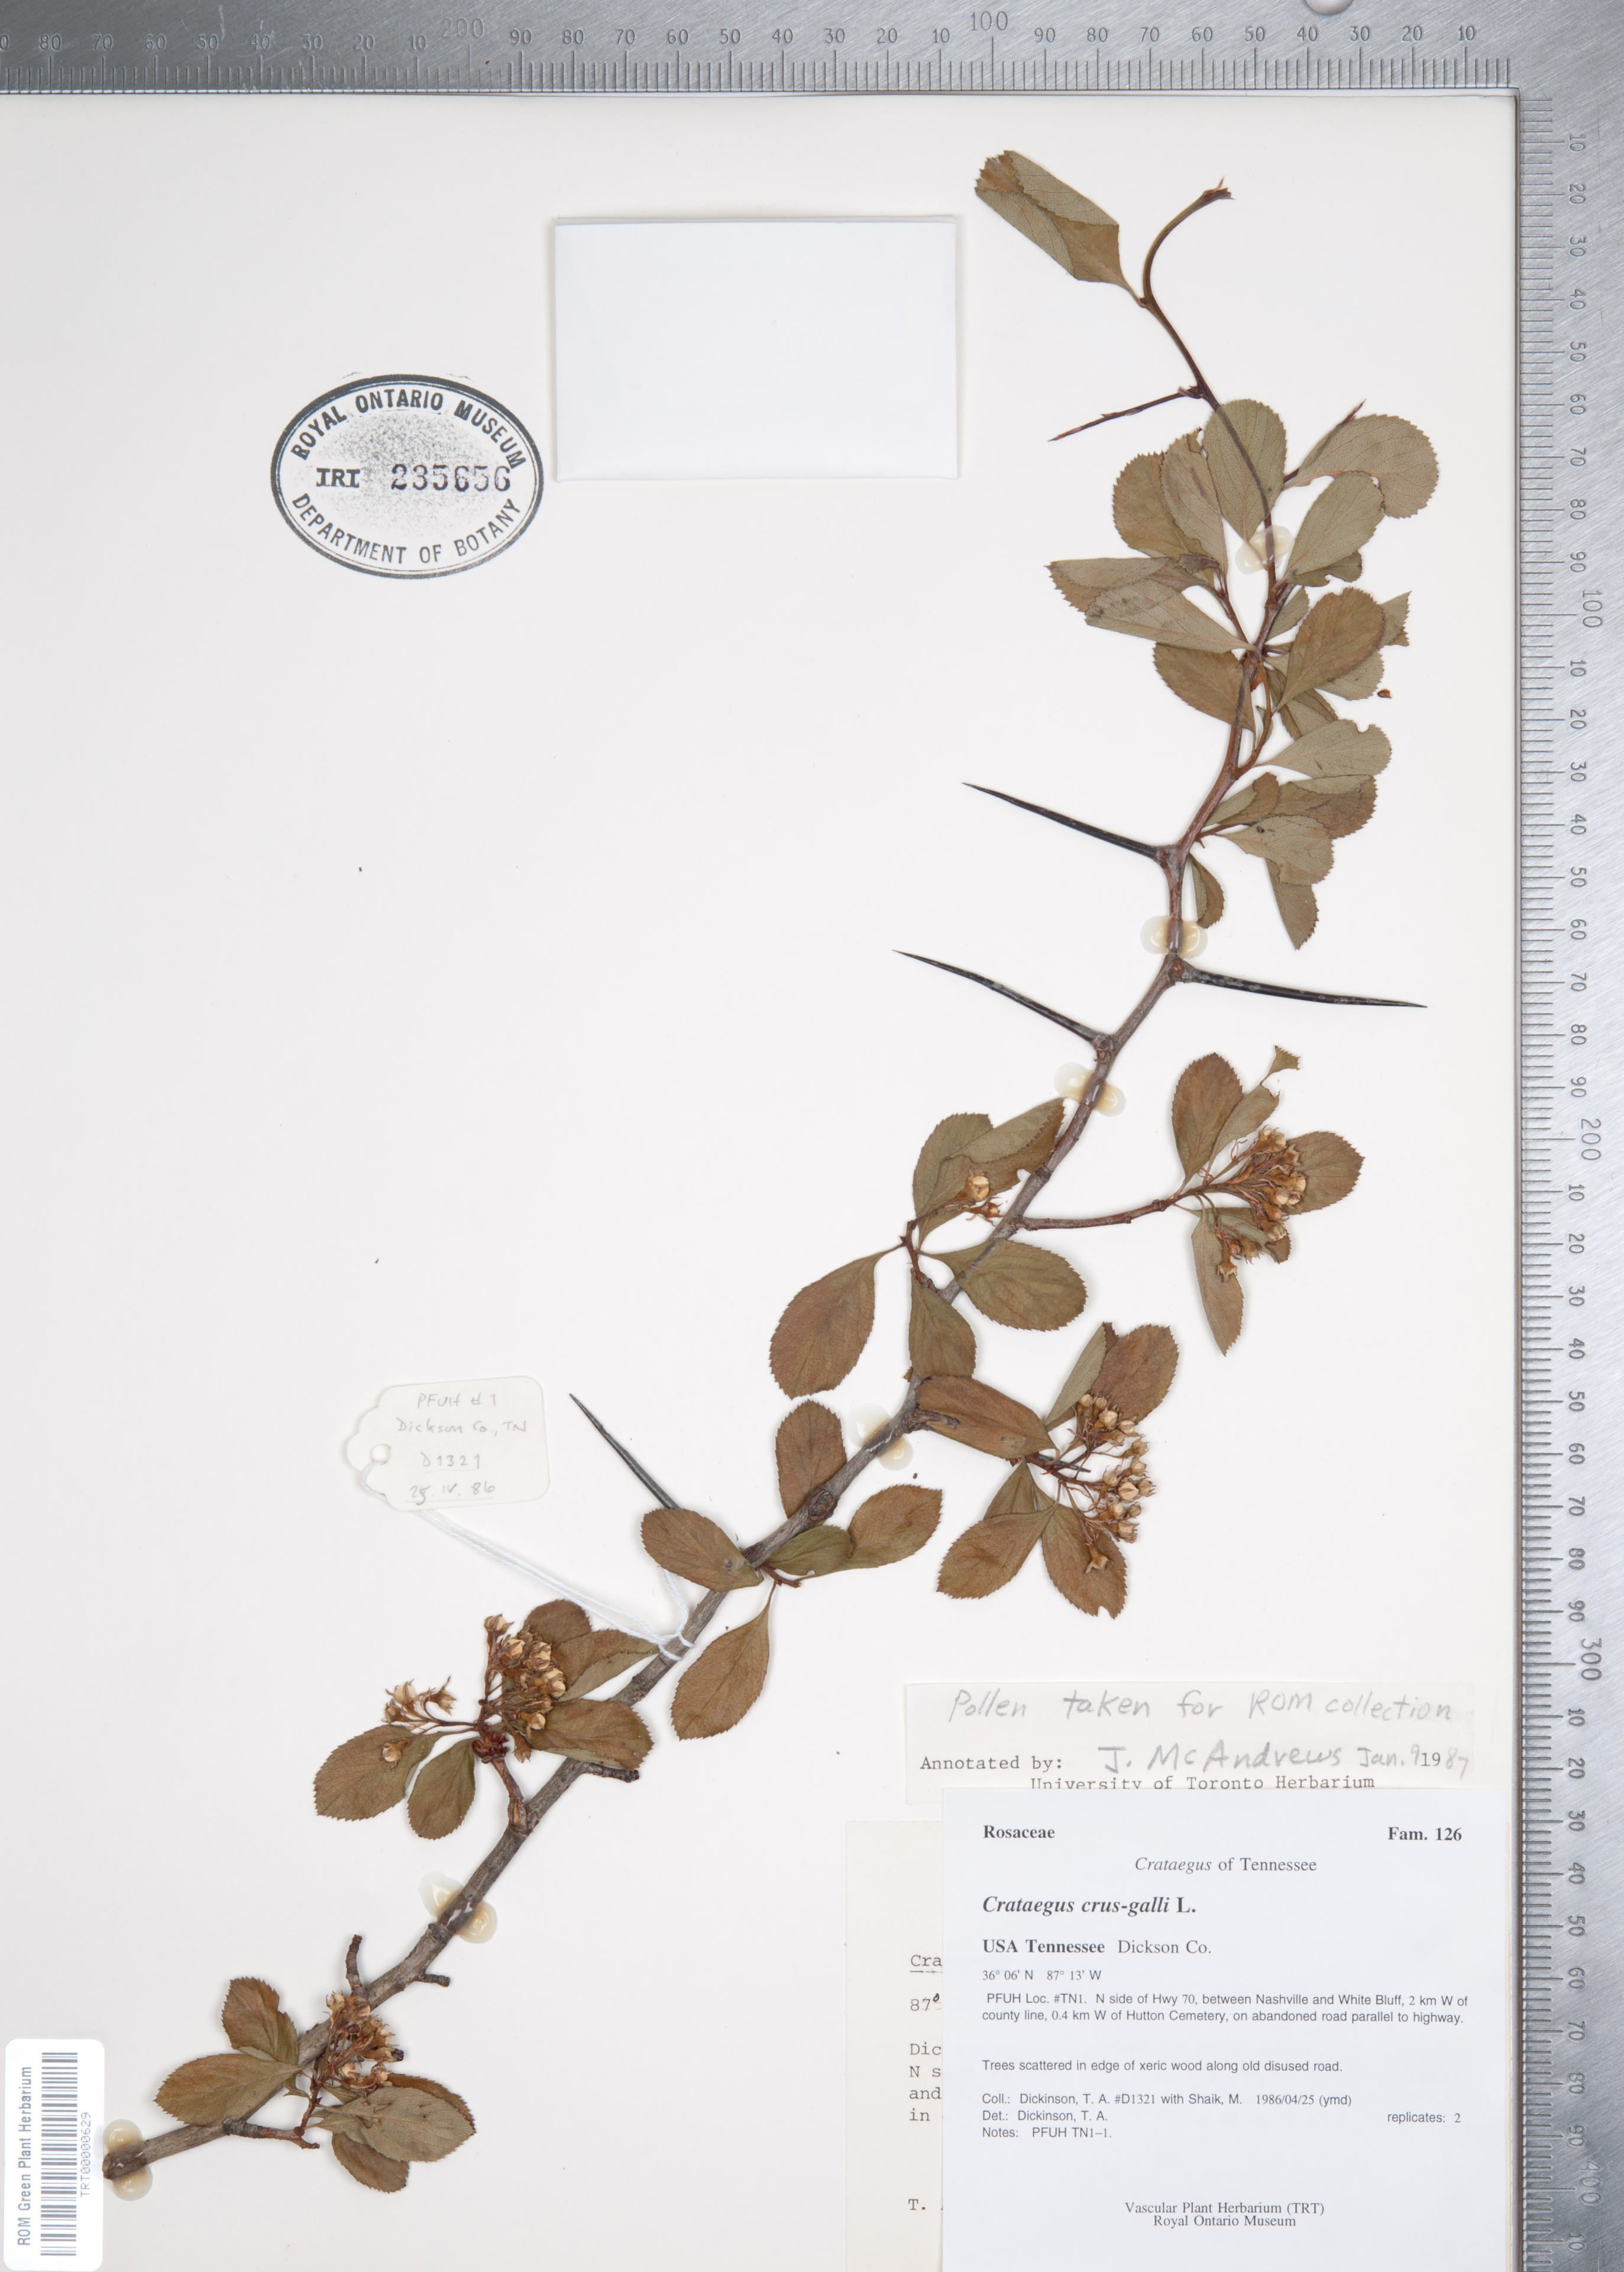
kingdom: Plantae
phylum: Tracheophyta
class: Magnoliopsida
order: Rosales
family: Rosaceae
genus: Crataegus
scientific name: Crataegus crus-galli
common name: Cockspurthorn
